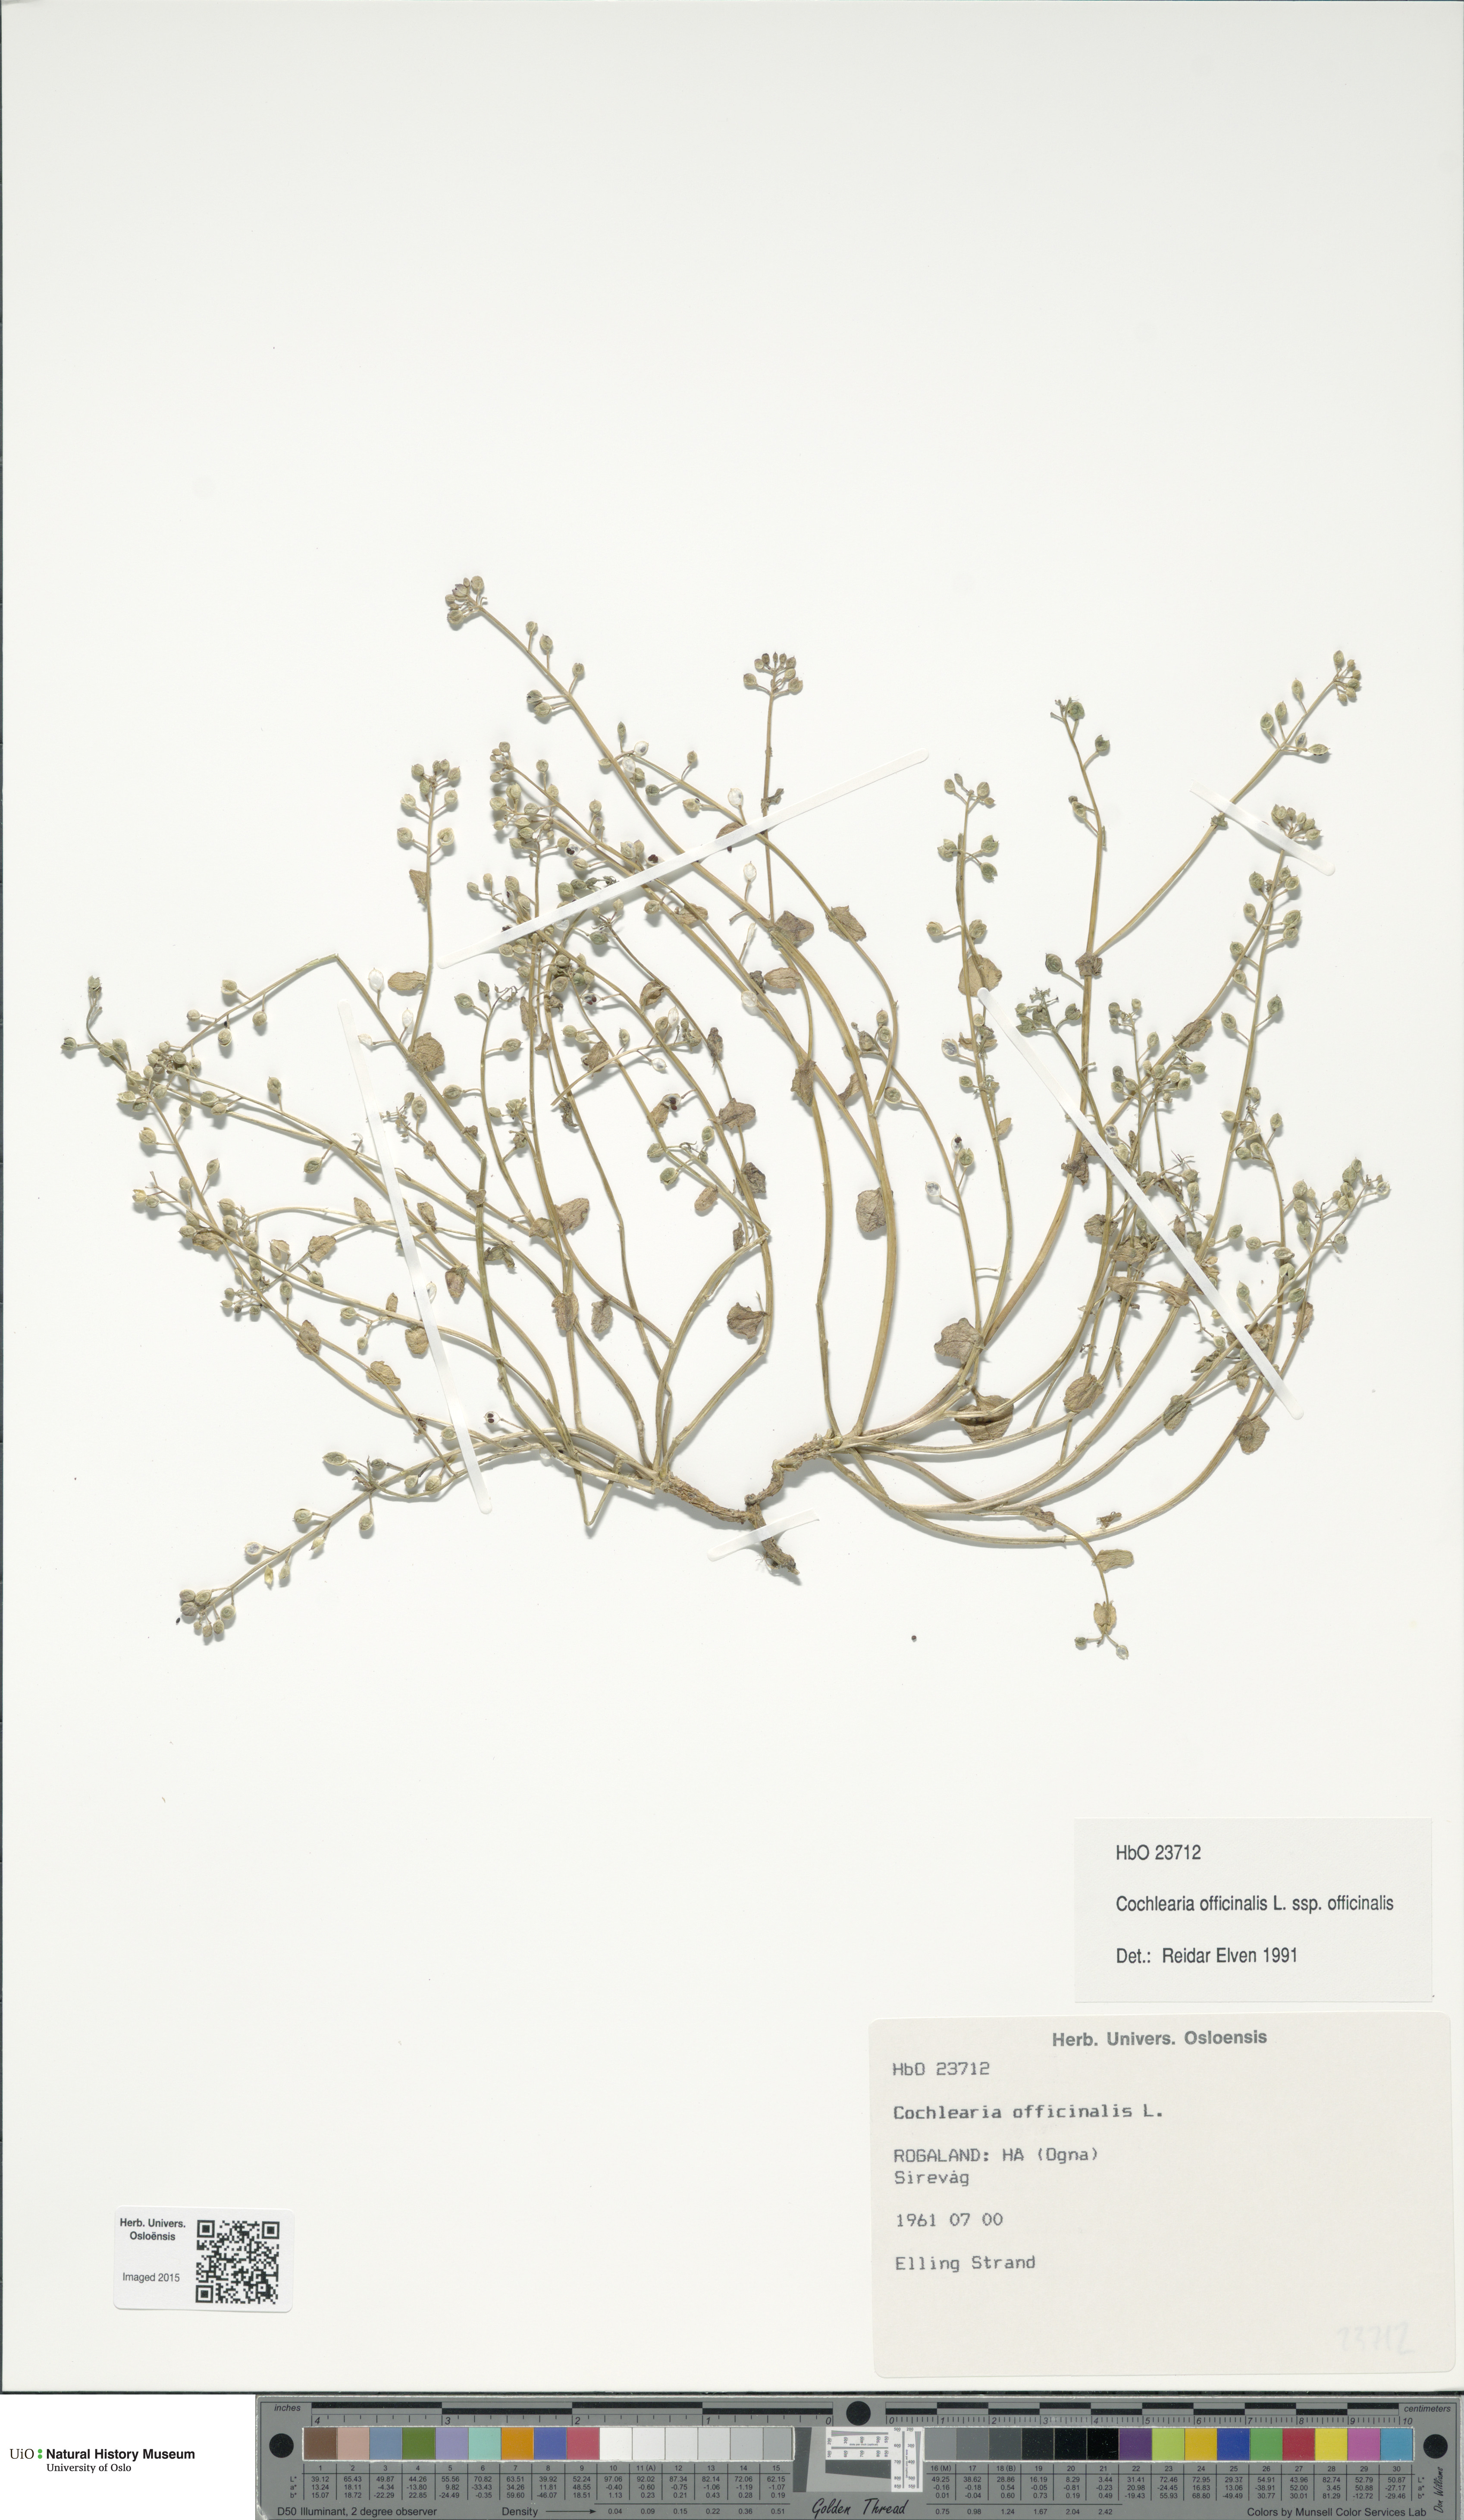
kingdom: Plantae
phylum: Tracheophyta
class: Magnoliopsida
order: Brassicales
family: Brassicaceae
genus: Cochlearia
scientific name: Cochlearia officinalis
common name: Scurvy-grass
